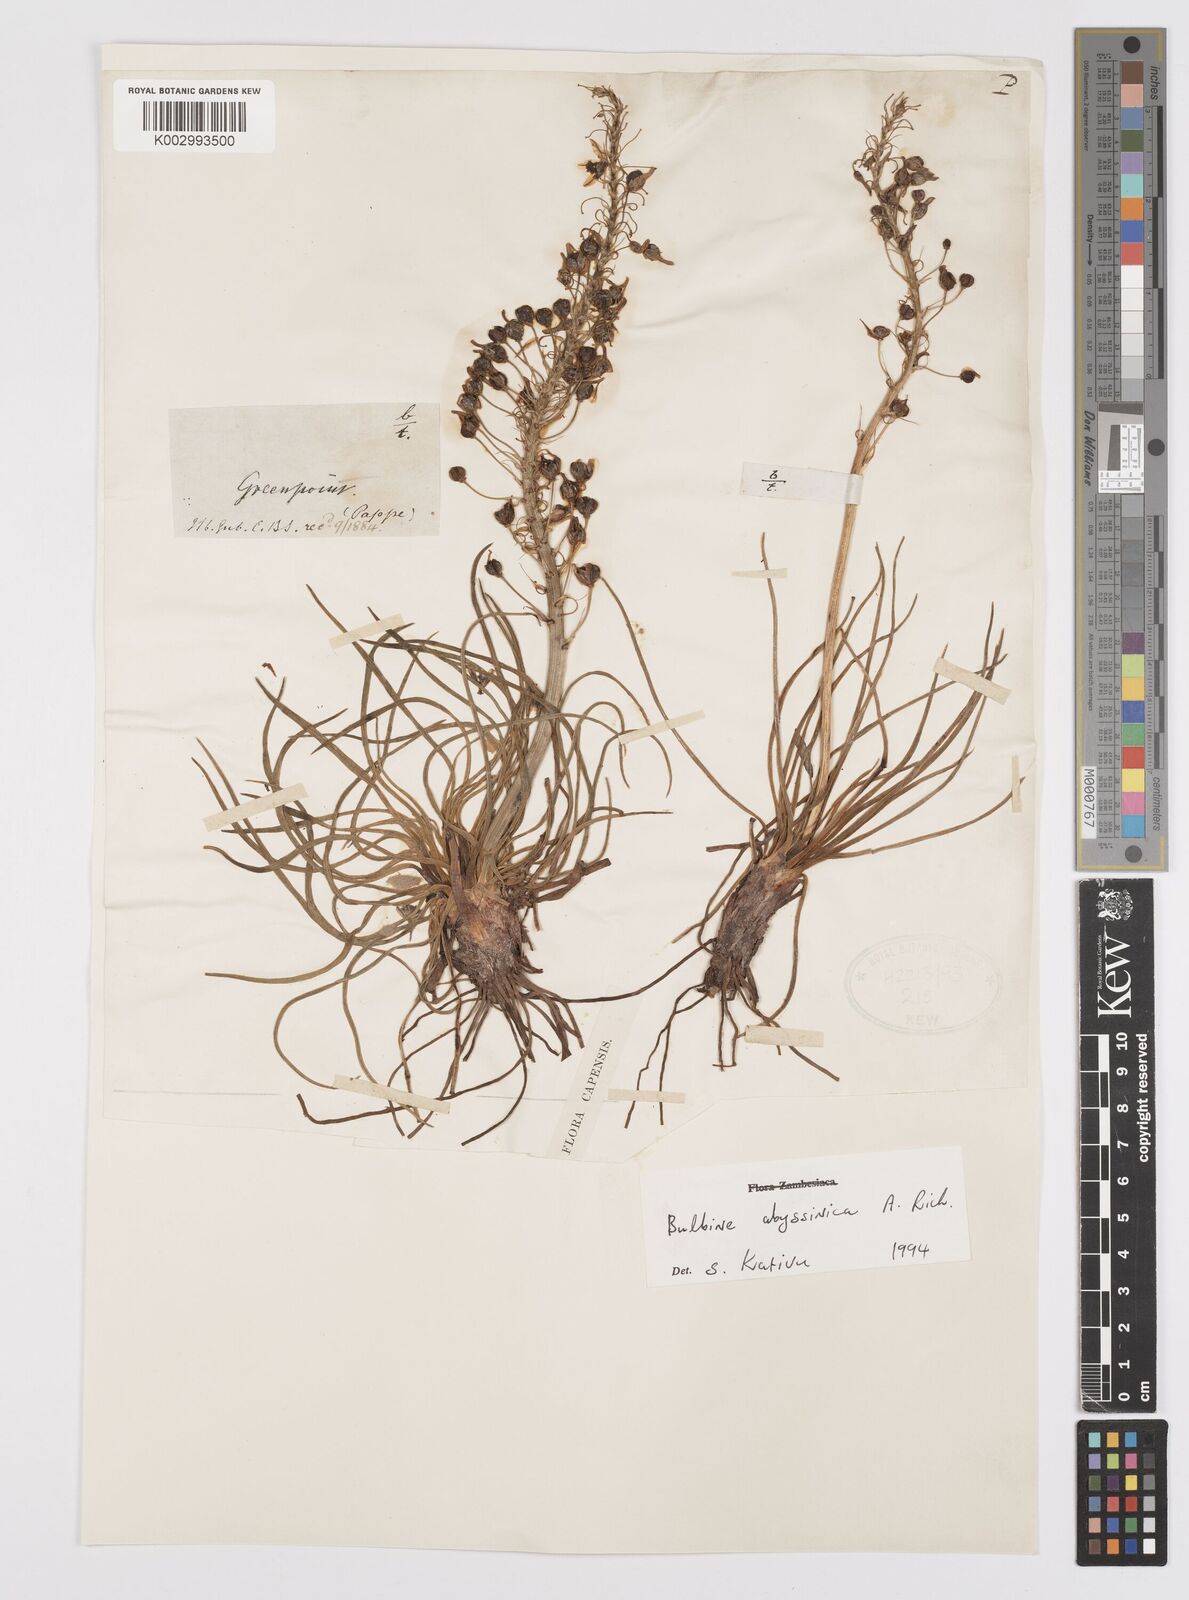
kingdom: Plantae
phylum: Tracheophyta
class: Liliopsida
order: Asparagales
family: Asphodelaceae
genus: Bulbine
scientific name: Bulbine abyssinica
